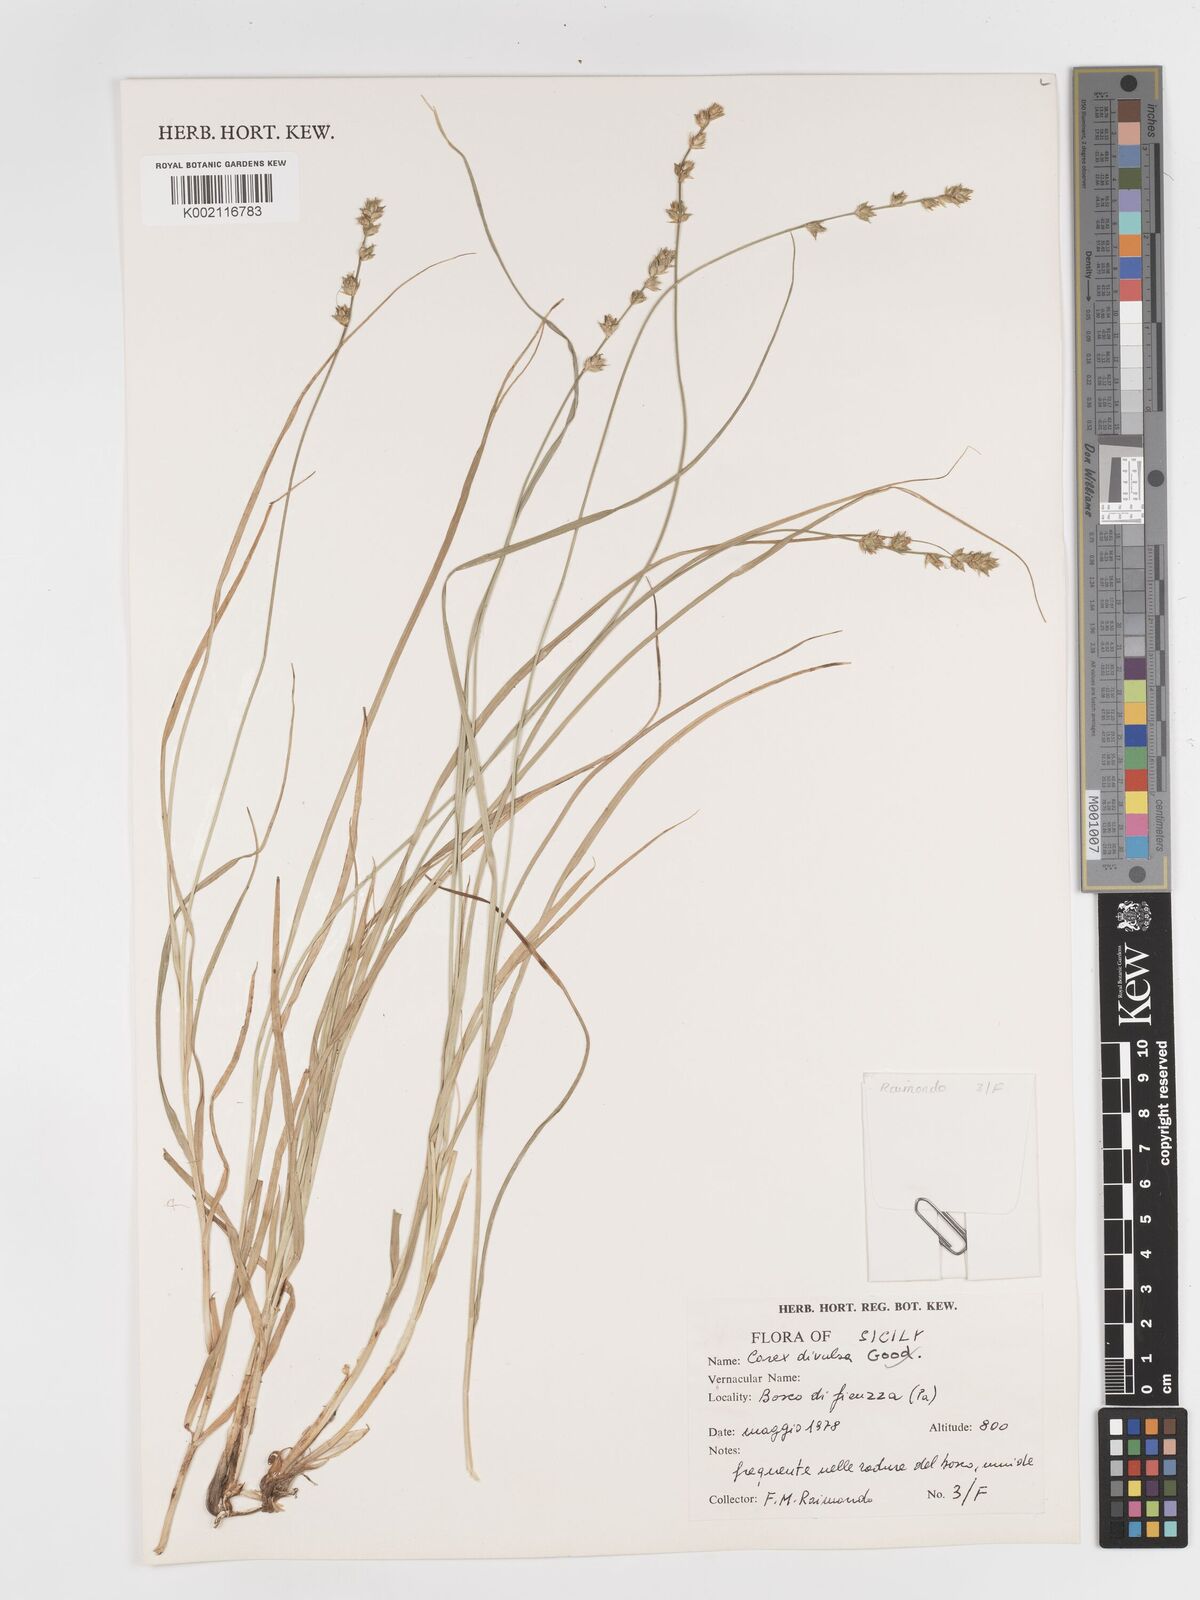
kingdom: Plantae
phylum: Tracheophyta
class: Liliopsida
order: Poales
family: Cyperaceae
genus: Carex
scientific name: Carex divulsa
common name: Grassland sedge
